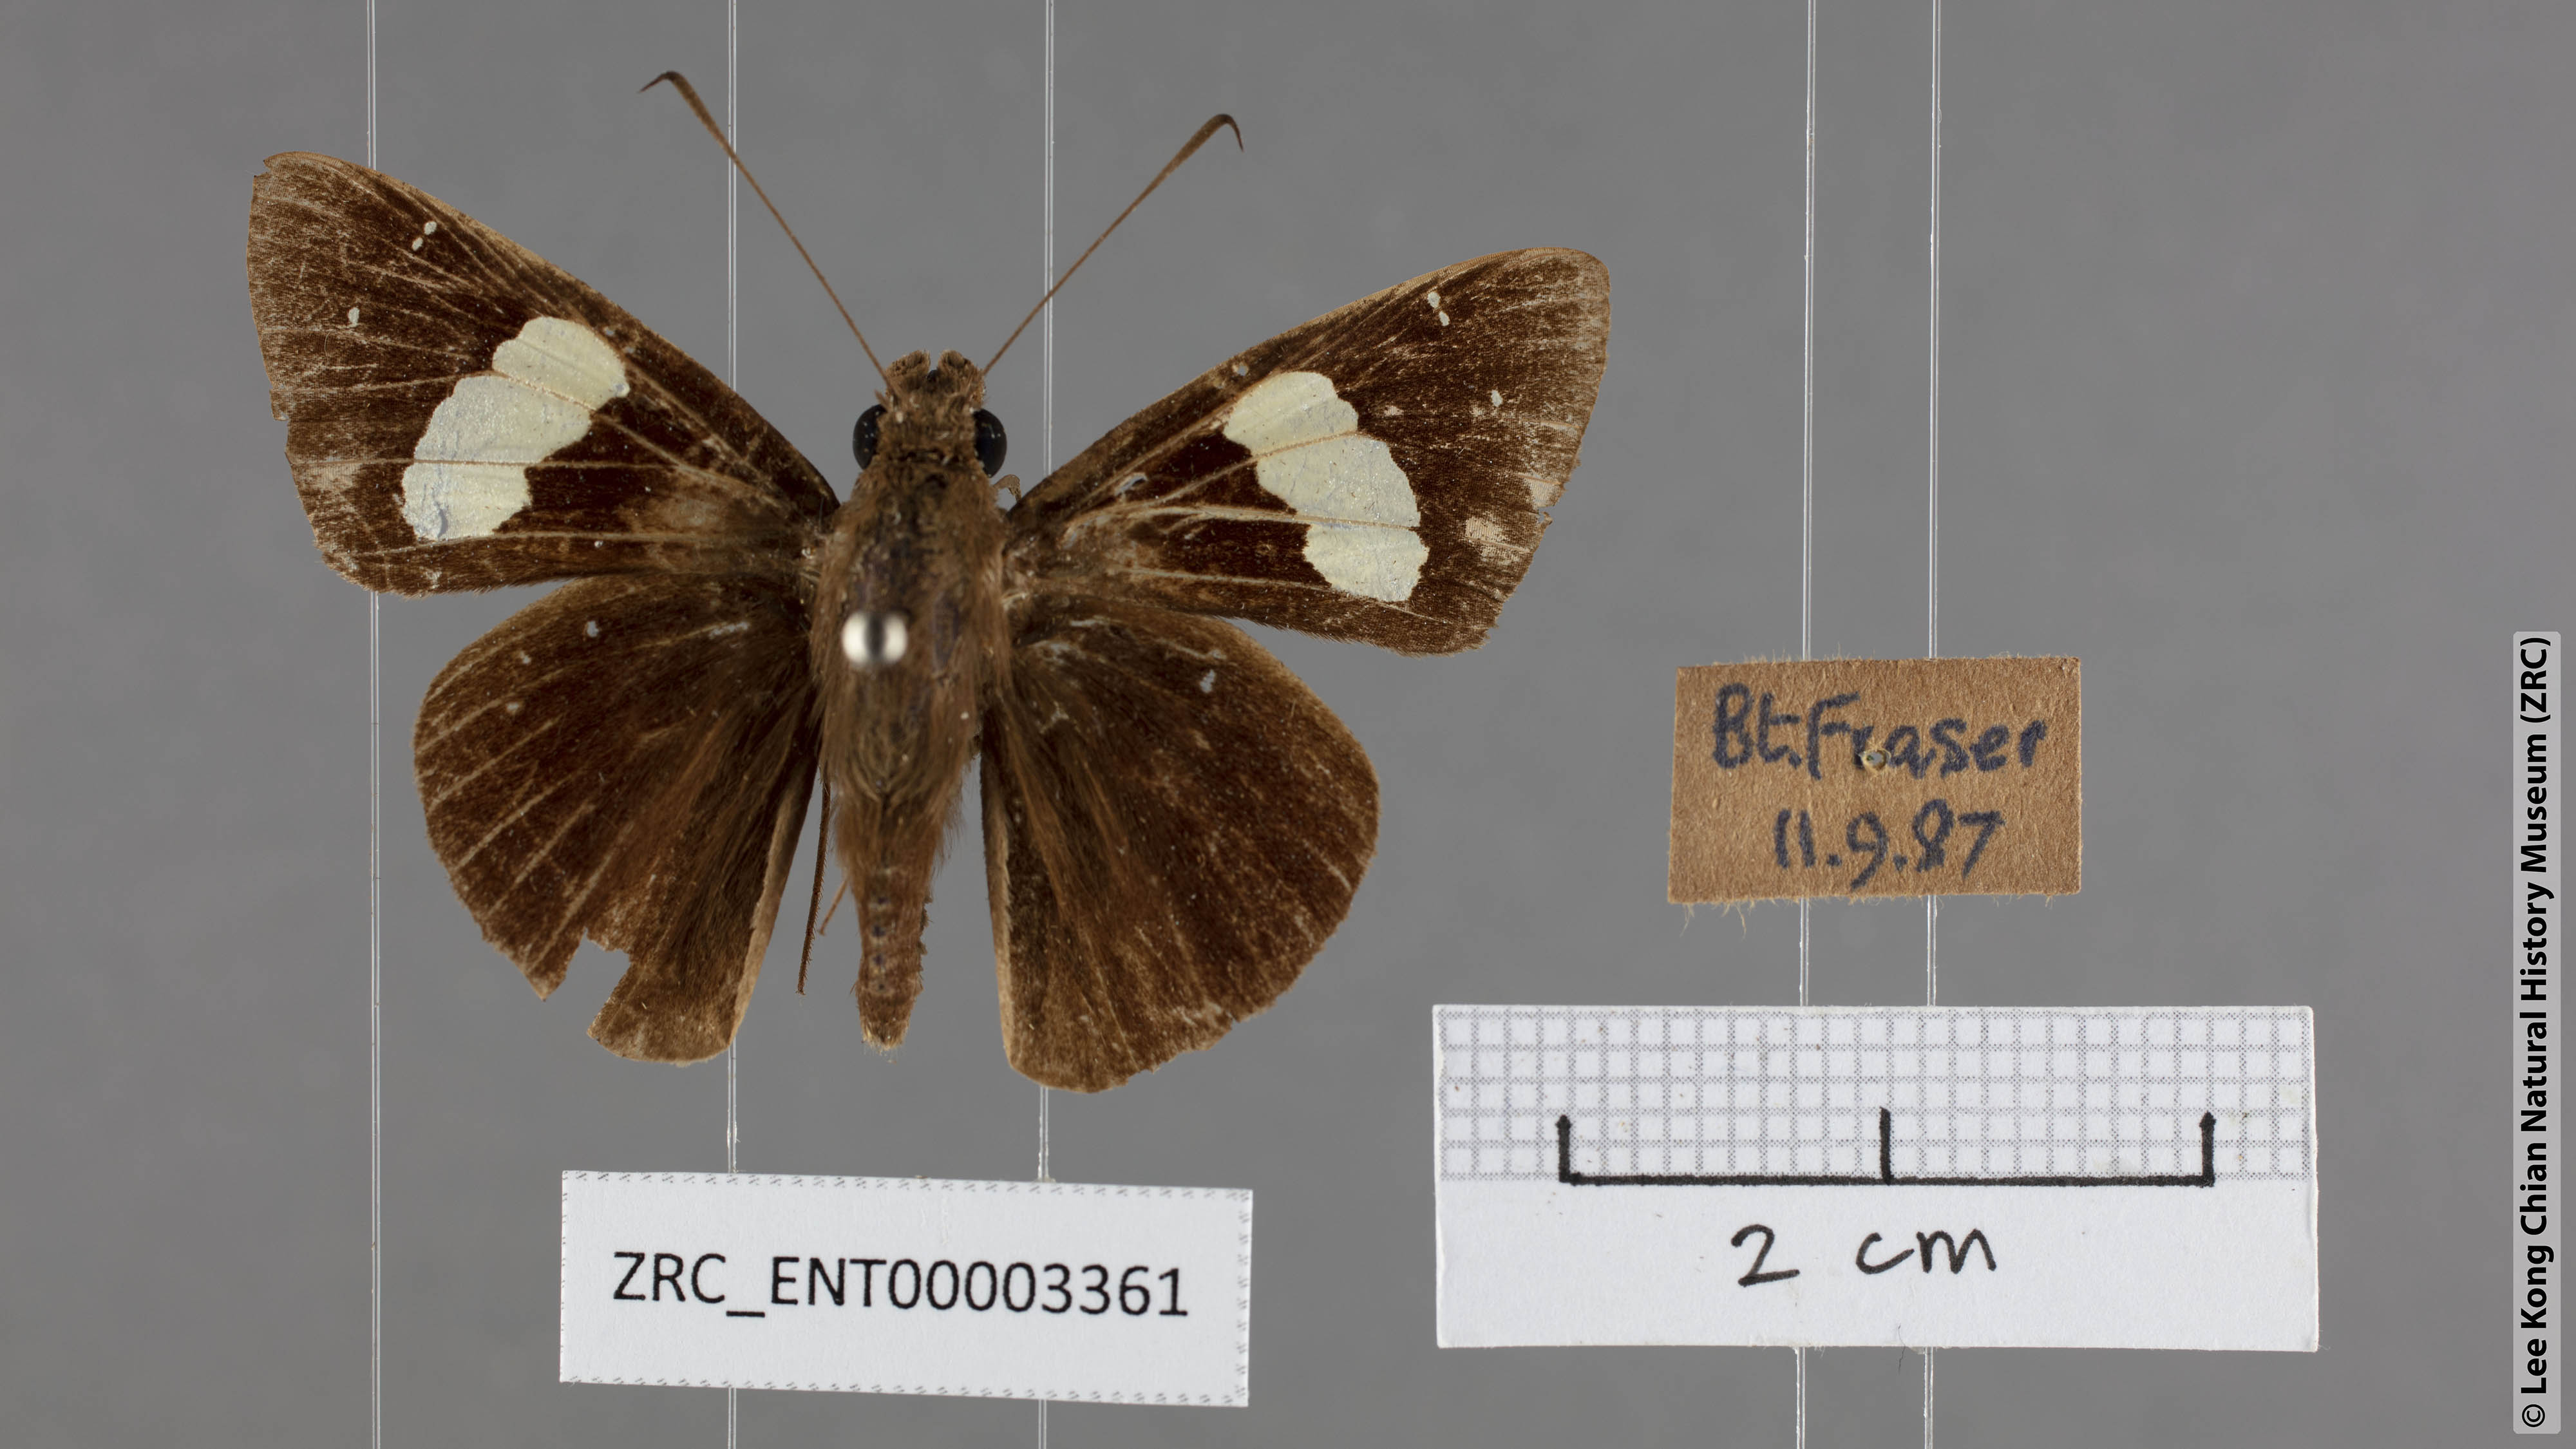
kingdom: Animalia
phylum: Arthropoda
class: Insecta
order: Lepidoptera
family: Hesperiidae
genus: Notocrypta
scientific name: Notocrypta paralysos
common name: Common banded demon
